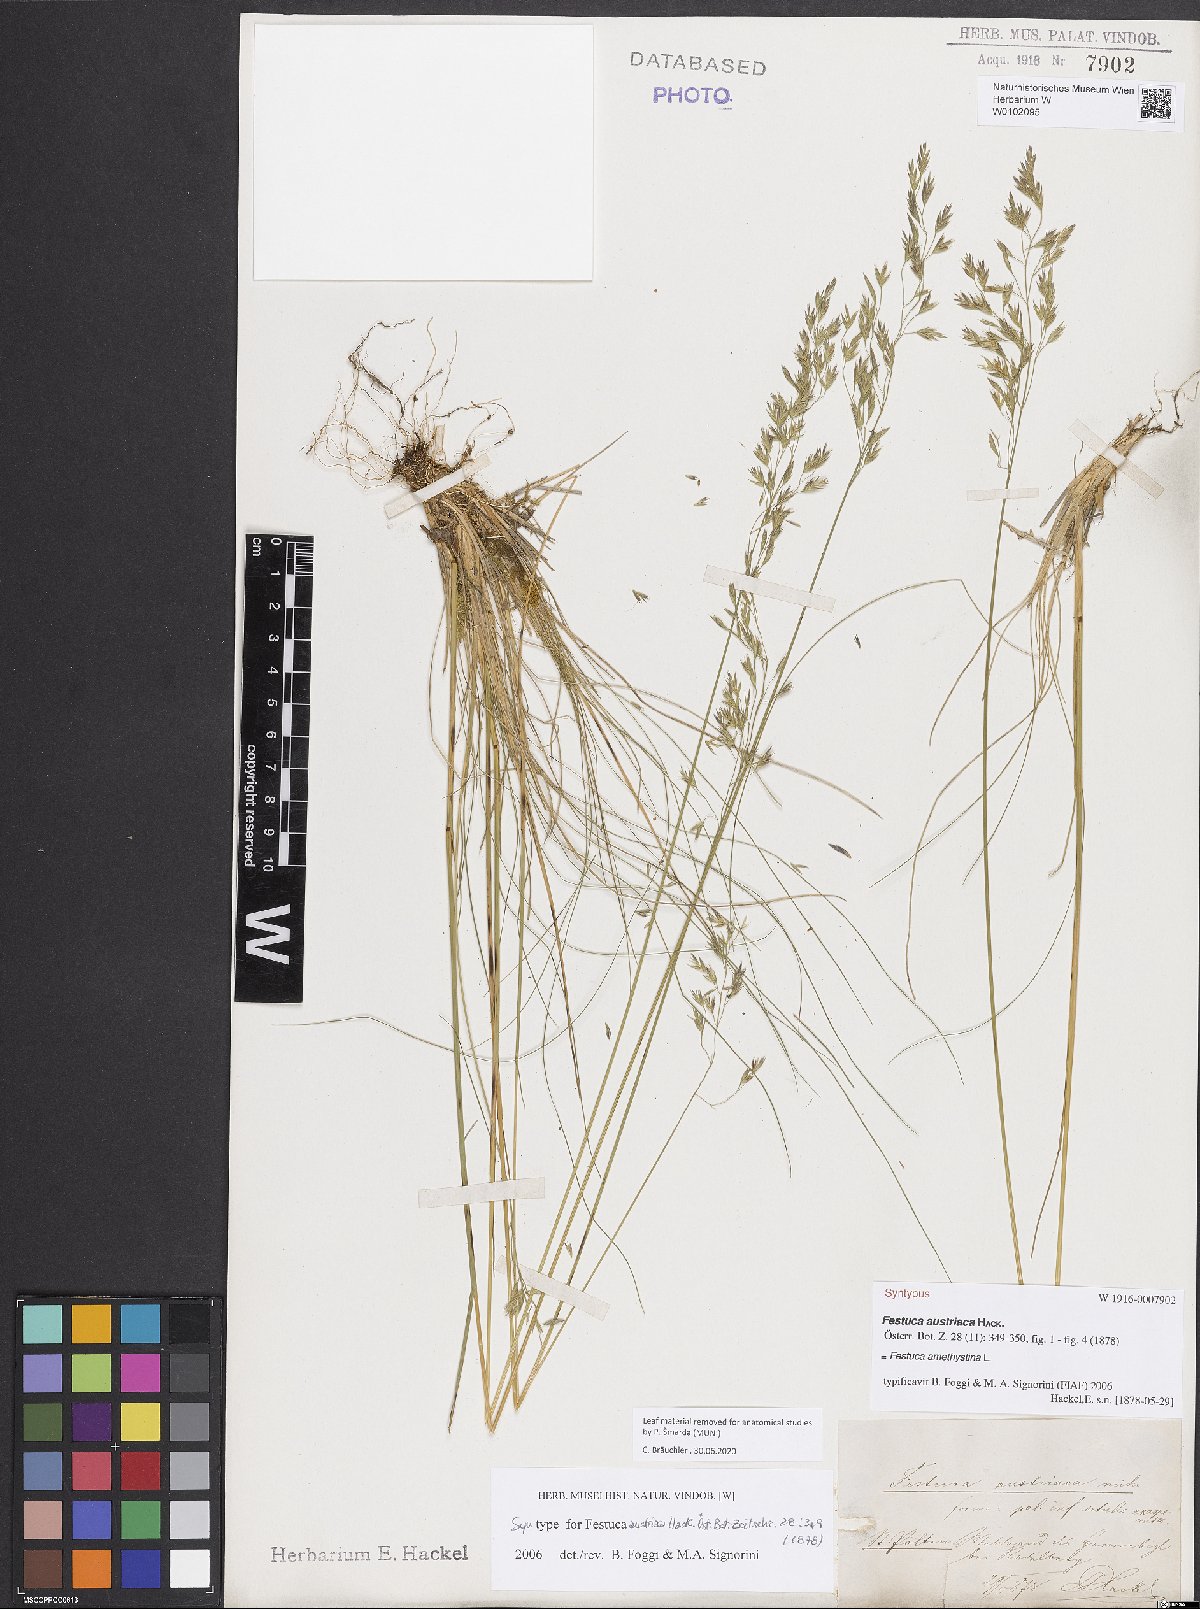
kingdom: Plantae
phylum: Tracheophyta
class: Liliopsida
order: Poales
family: Poaceae
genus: Festuca
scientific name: Festuca amethystina
